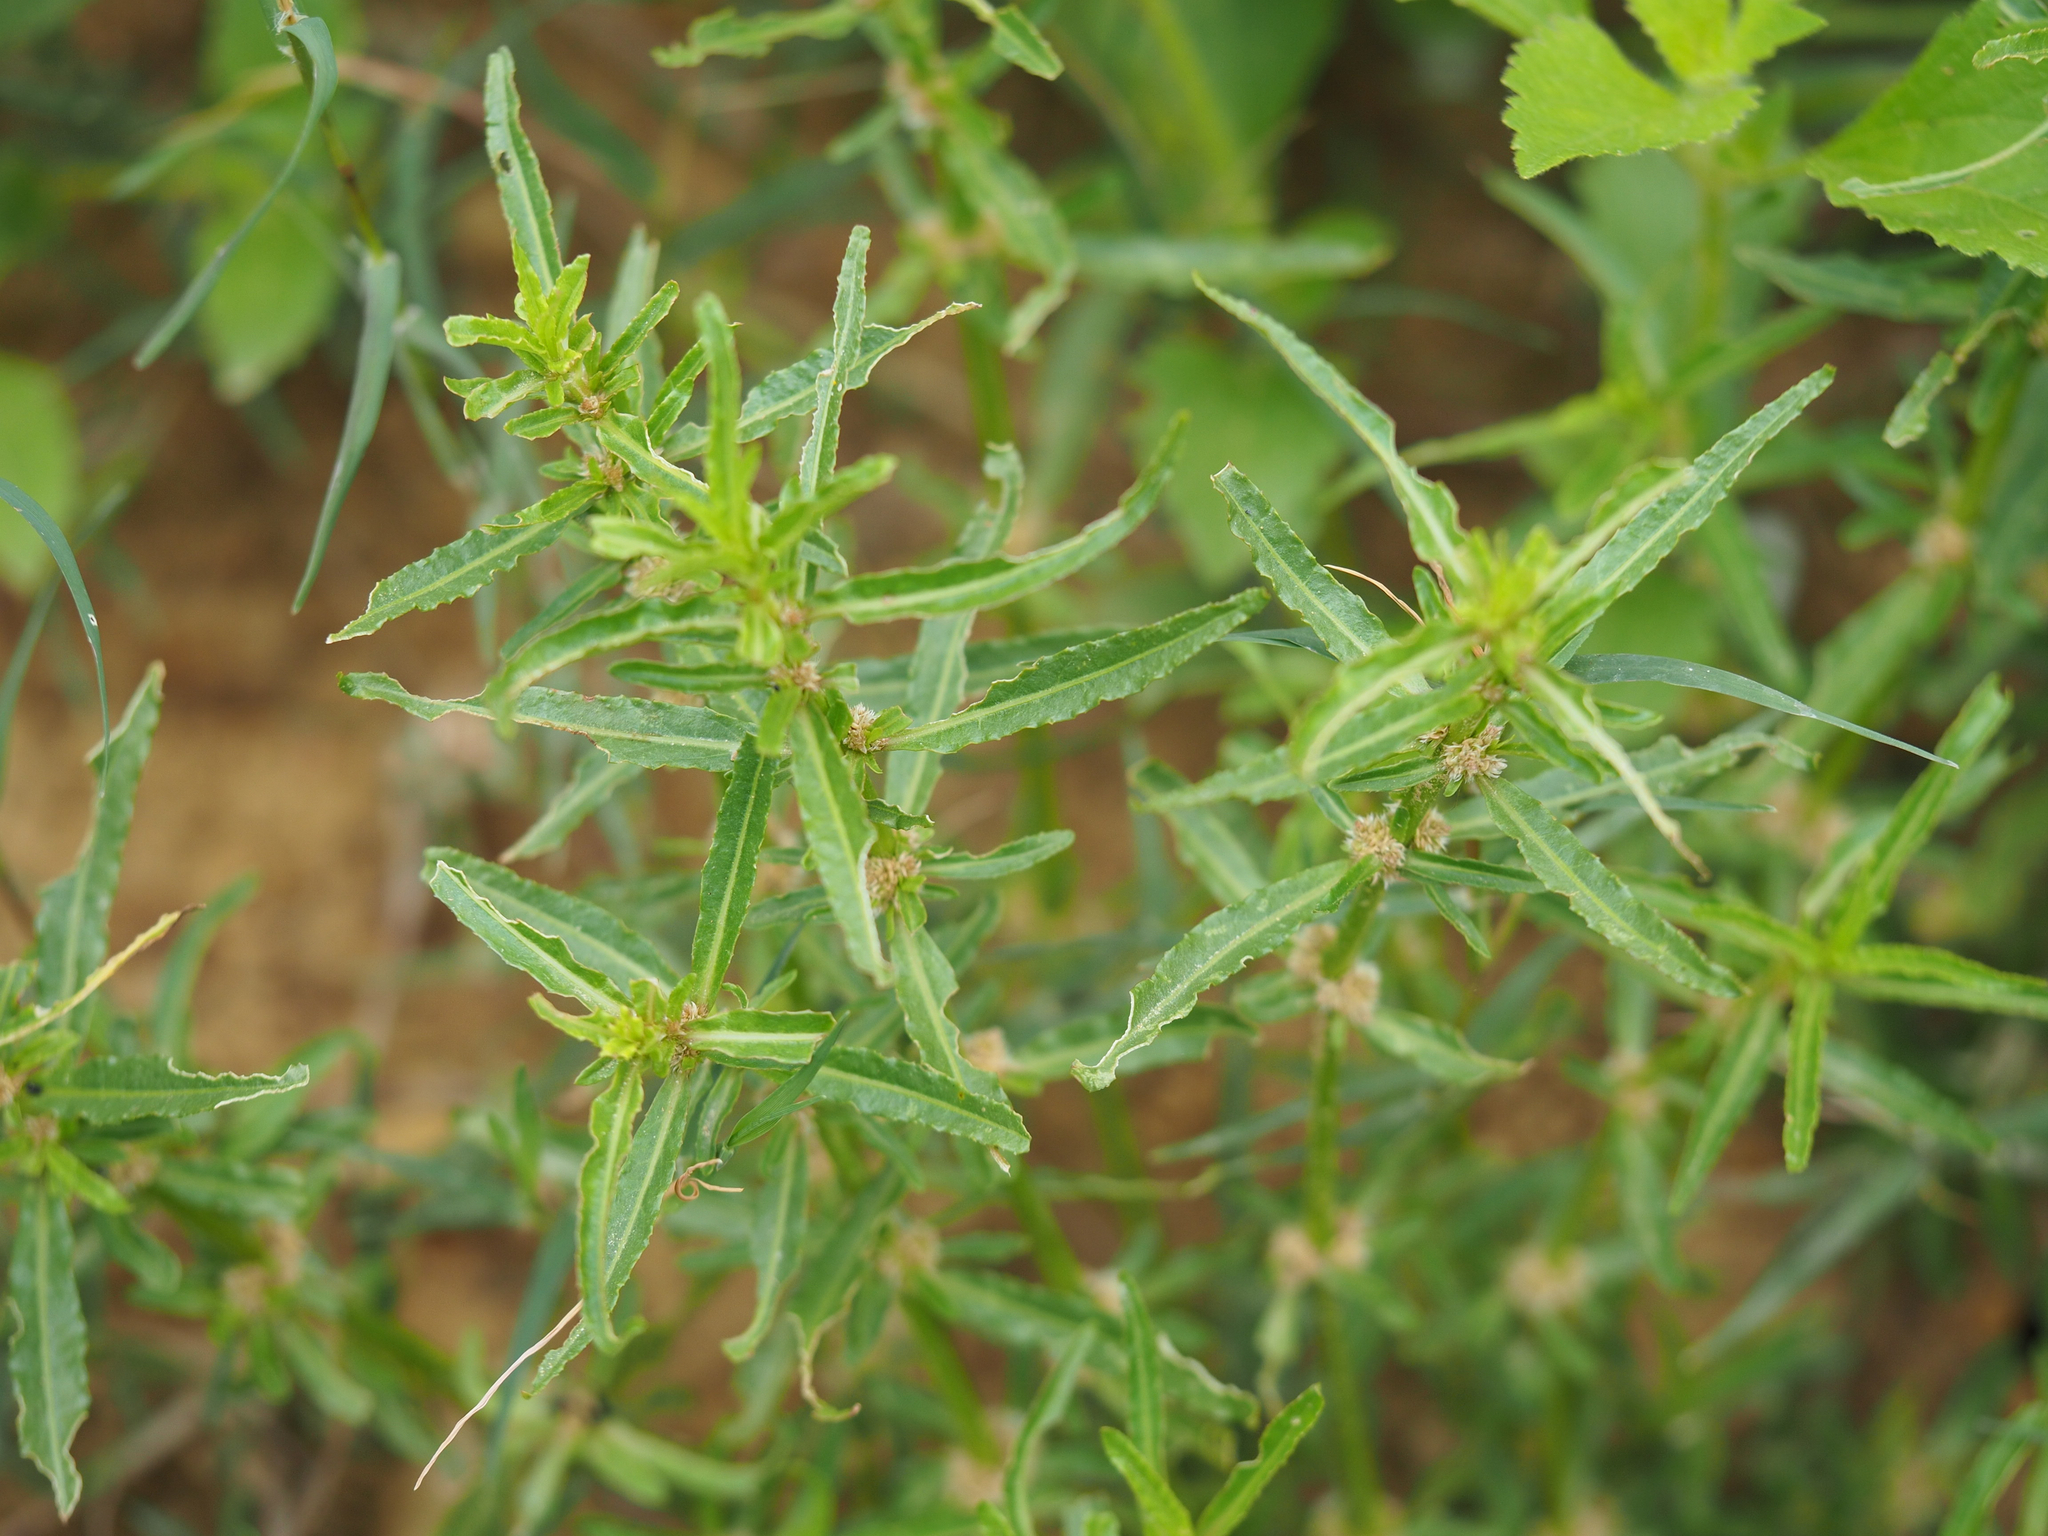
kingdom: Plantae
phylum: Tracheophyta
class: Magnoliopsida
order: Caryophyllales
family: Amaranthaceae
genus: Alternanthera
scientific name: Alternanthera sessilis
